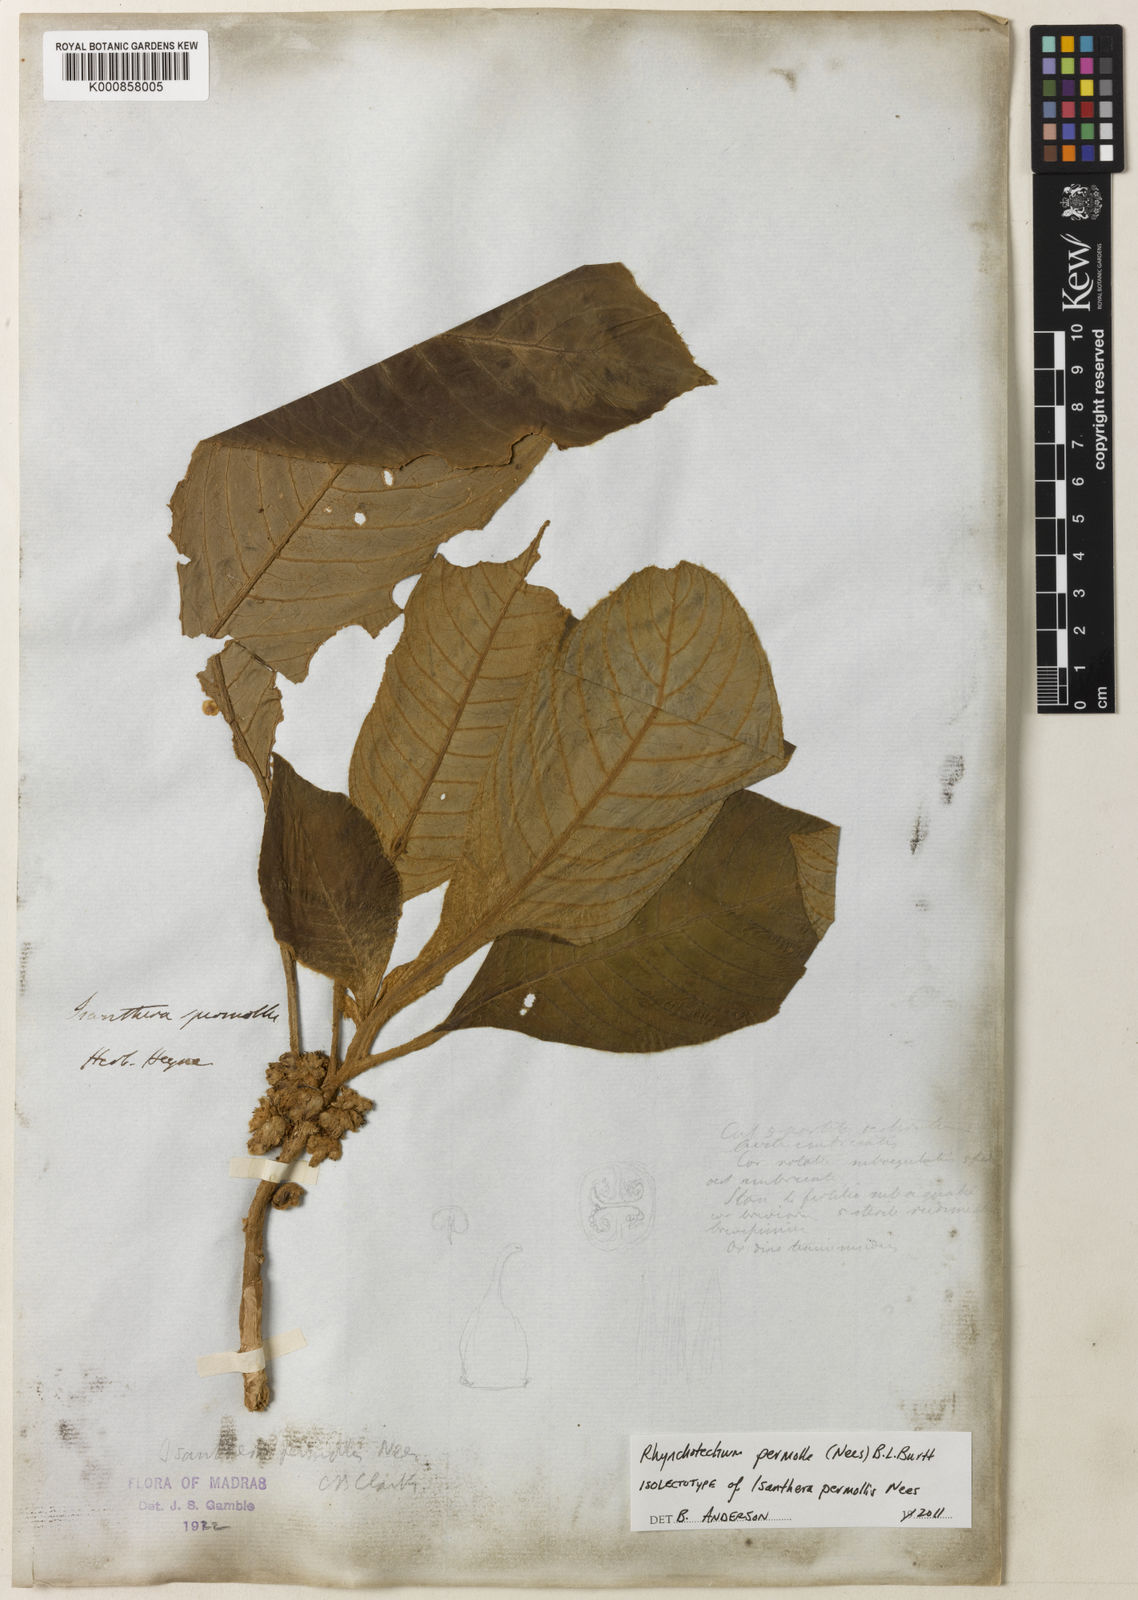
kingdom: Plantae
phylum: Tracheophyta
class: Magnoliopsida
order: Lamiales
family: Gesneriaceae
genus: Rhynchotechum
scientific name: Rhynchotechum permolle
